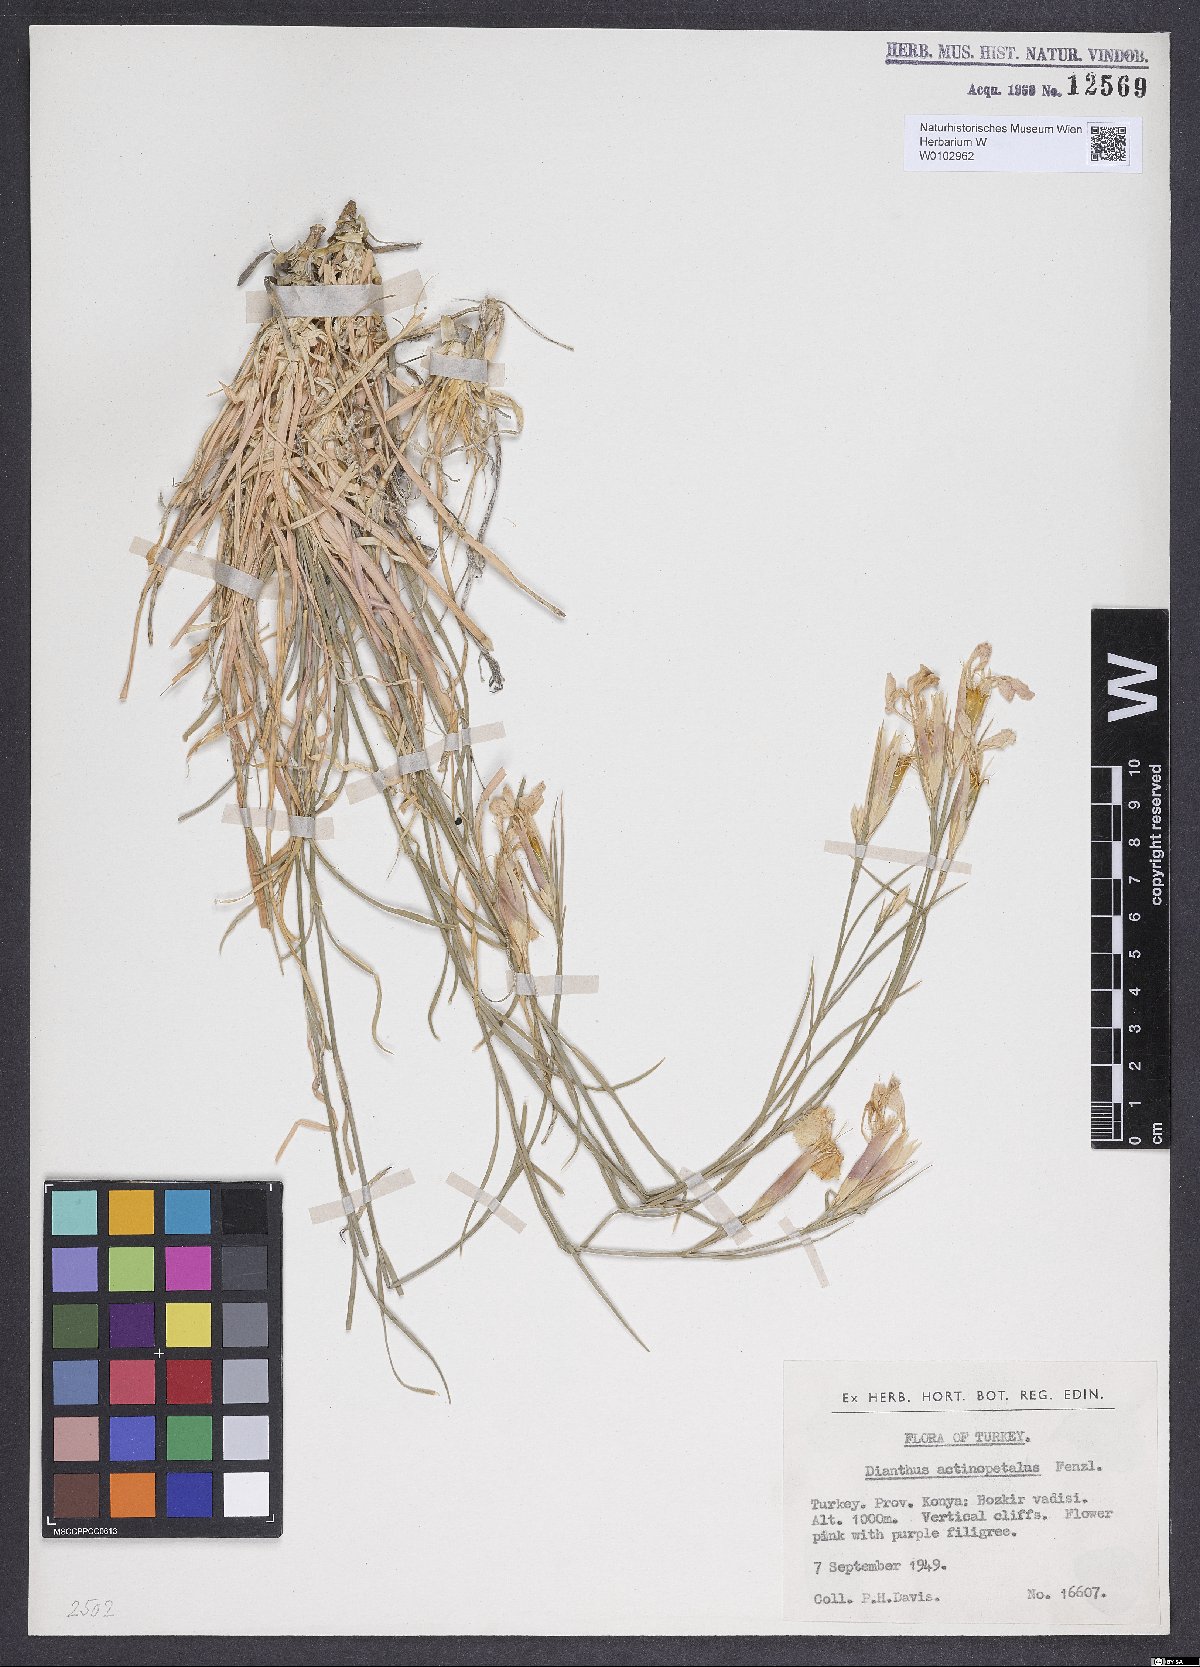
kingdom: Plantae
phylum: Tracheophyta
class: Magnoliopsida
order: Caryophyllales
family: Caryophyllaceae
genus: Dianthus
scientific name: Dianthus elegans
